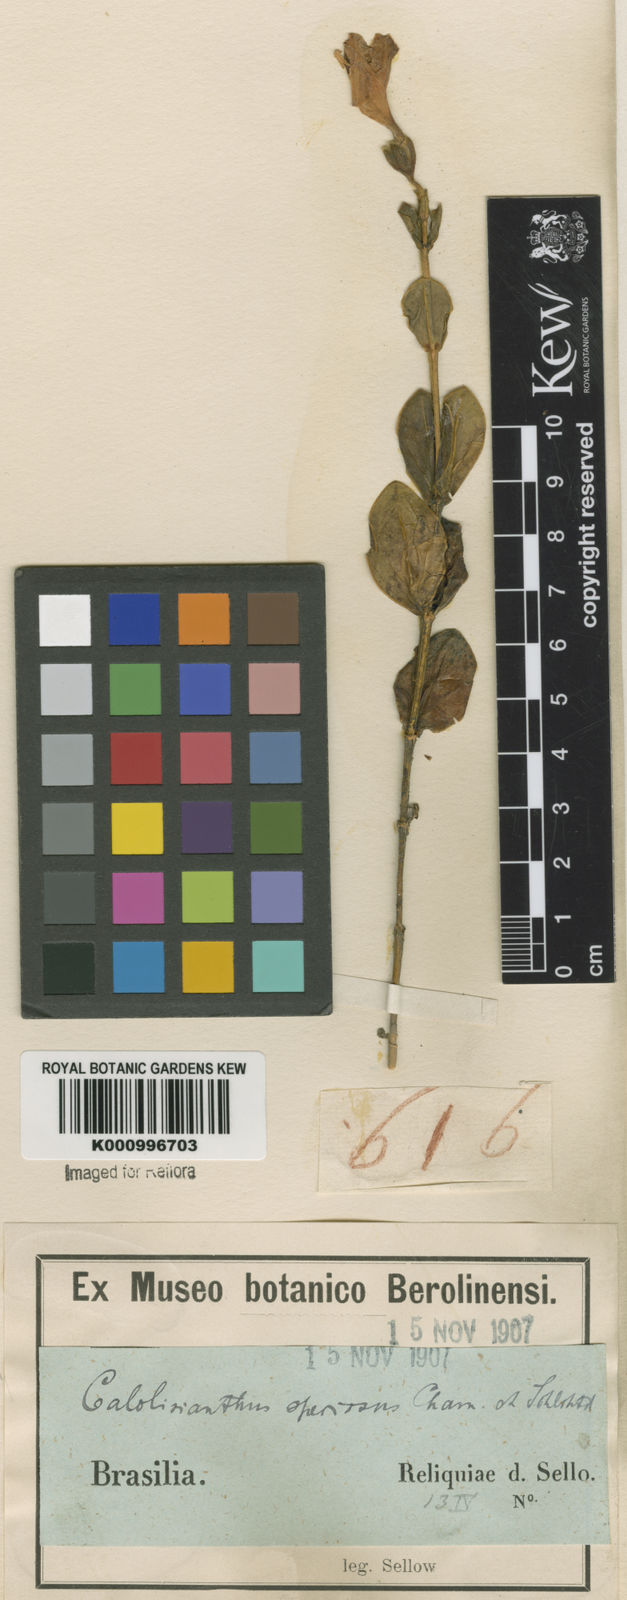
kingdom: Plantae
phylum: Tracheophyta
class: Magnoliopsida
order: Gentianales
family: Gentianaceae
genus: Calolisianthus
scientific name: Calolisianthus speciosus
